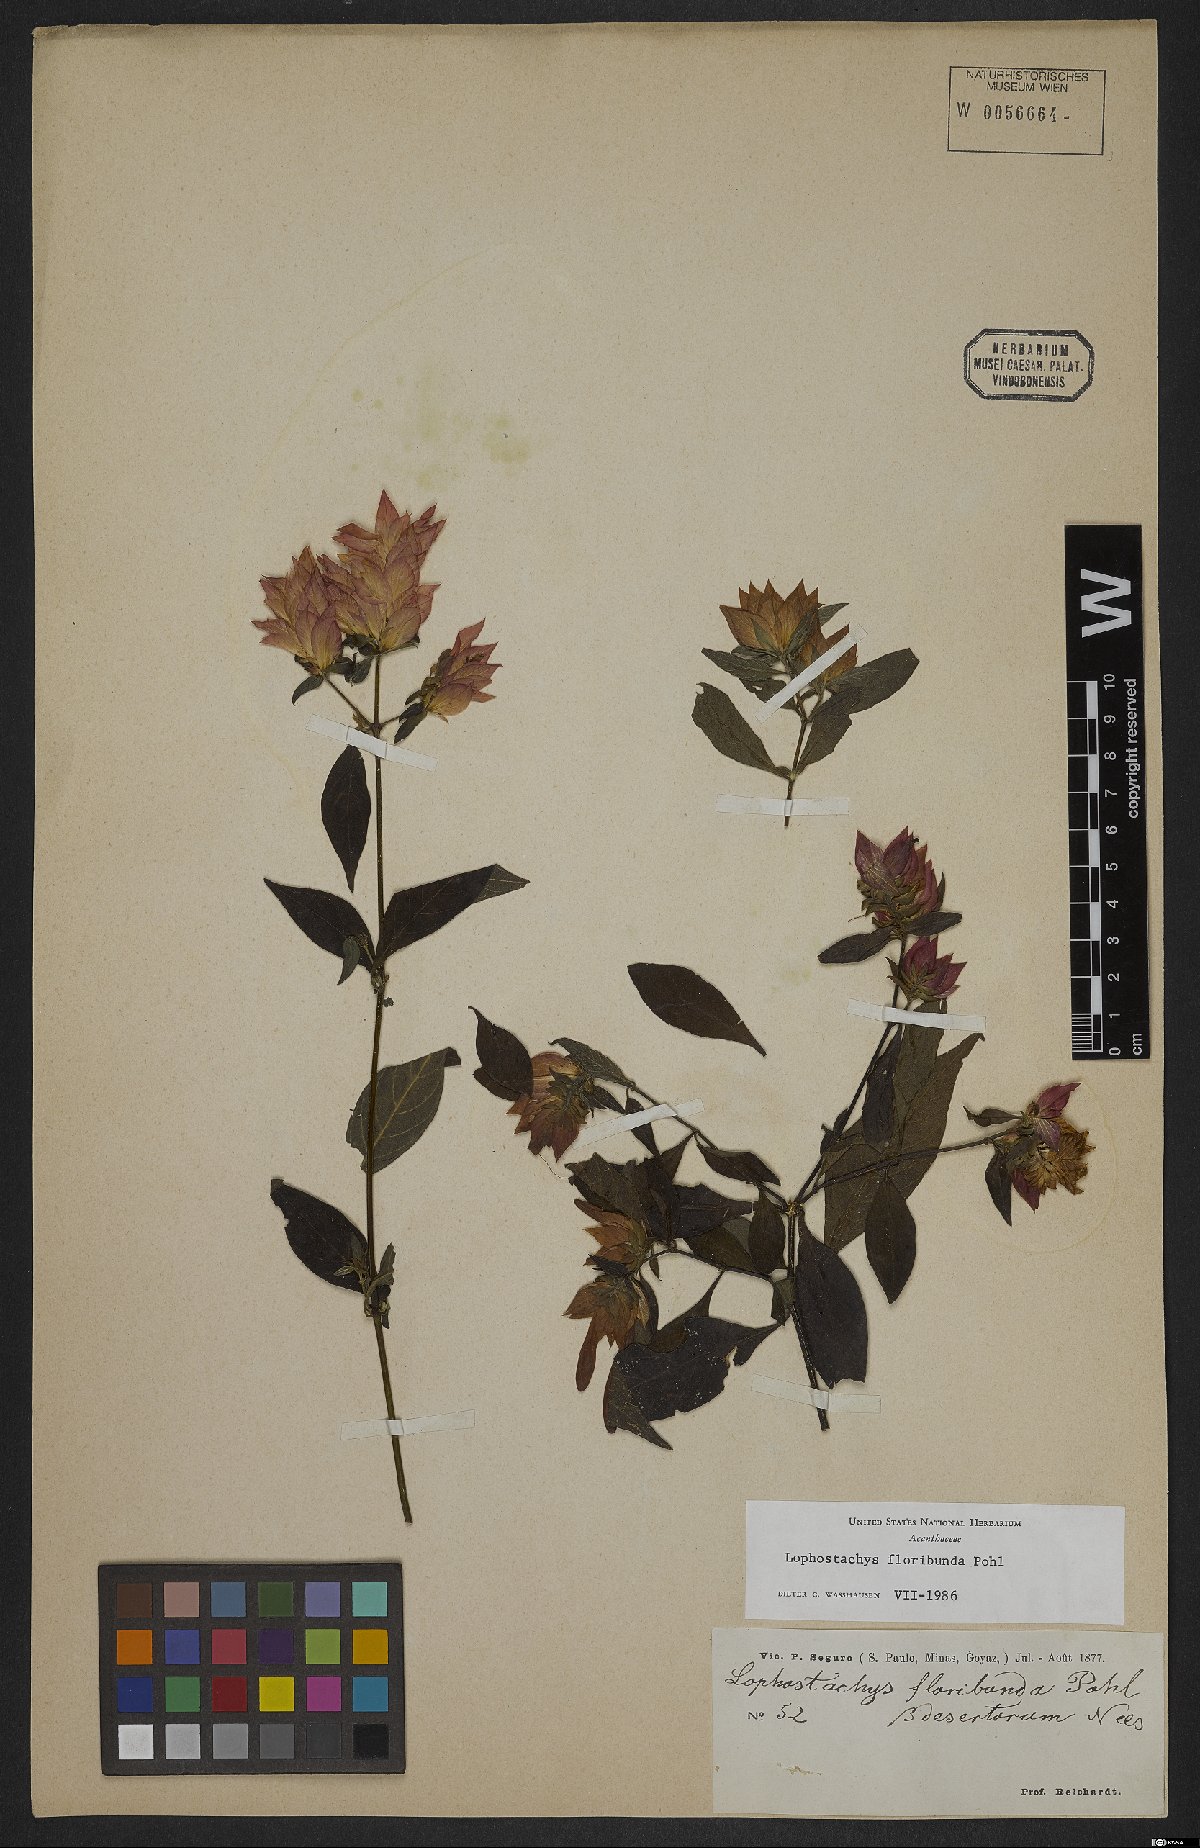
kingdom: Plantae
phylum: Tracheophyta
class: Magnoliopsida
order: Lamiales
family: Acanthaceae
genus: Lepidagathis
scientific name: Lepidagathis floribunda
